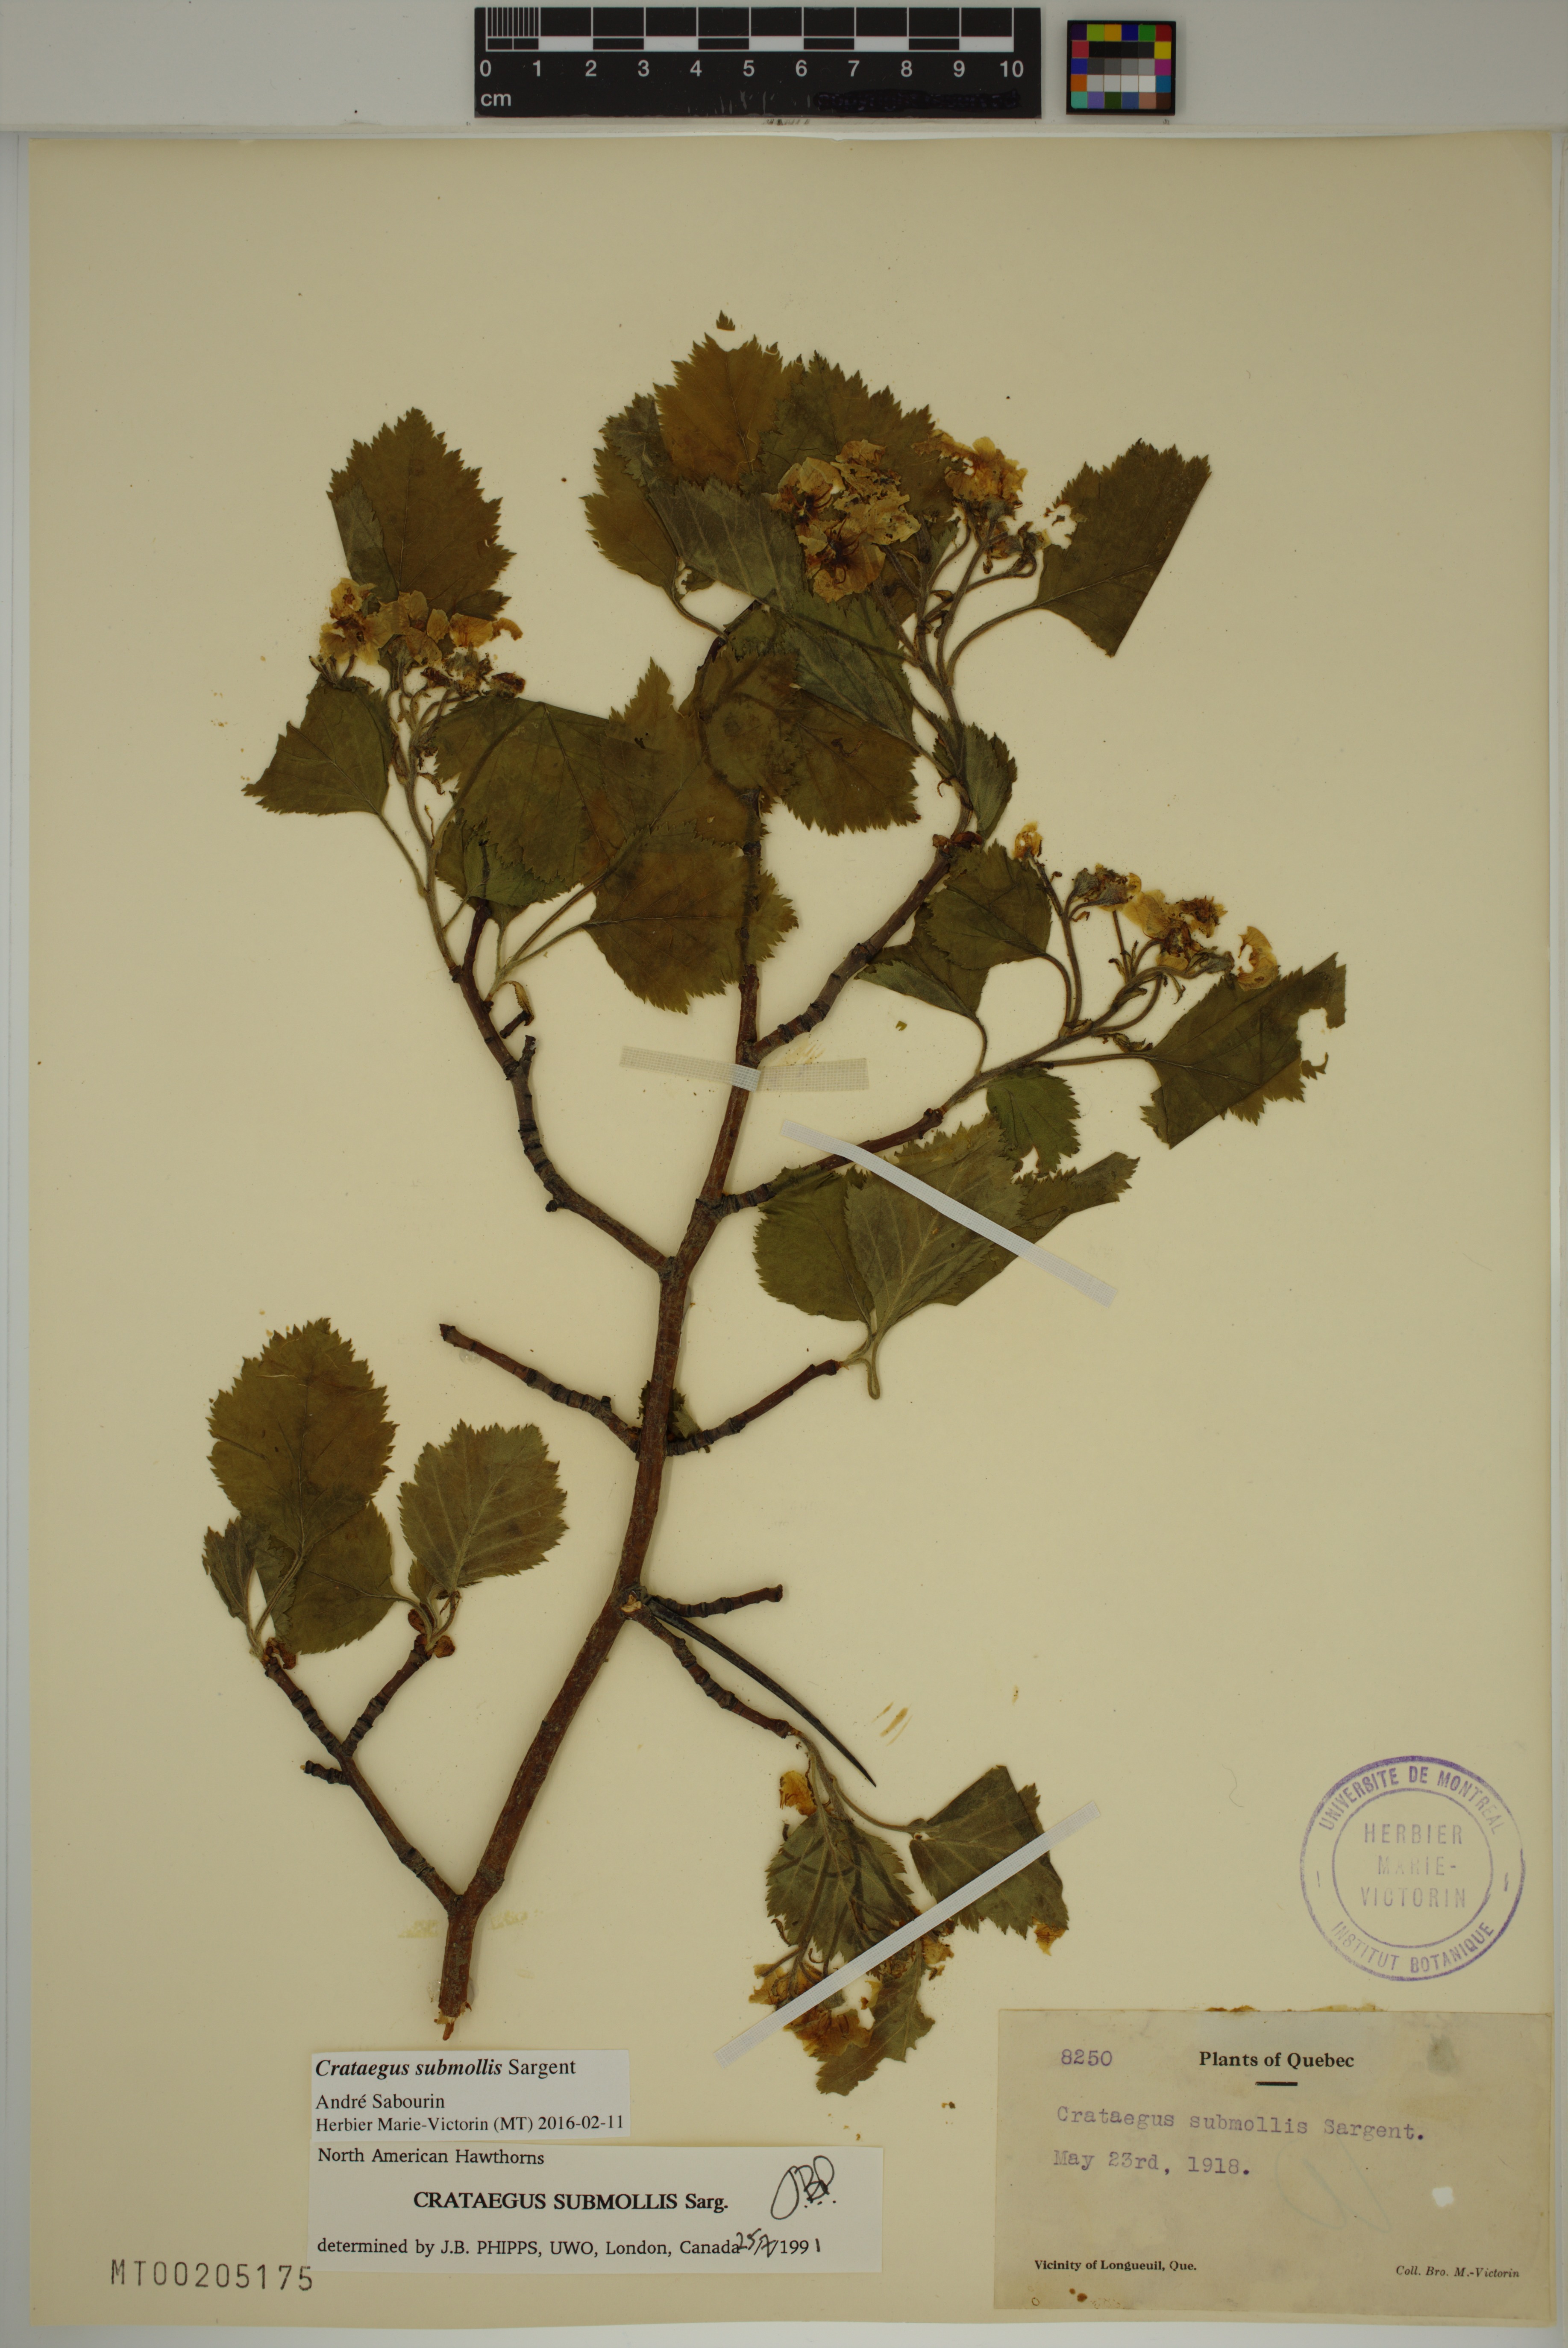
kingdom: Plantae
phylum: Tracheophyta
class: Magnoliopsida
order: Rosales
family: Rosaceae
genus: Crataegus
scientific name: Crataegus submollis
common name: Hairy cockspurthorn
